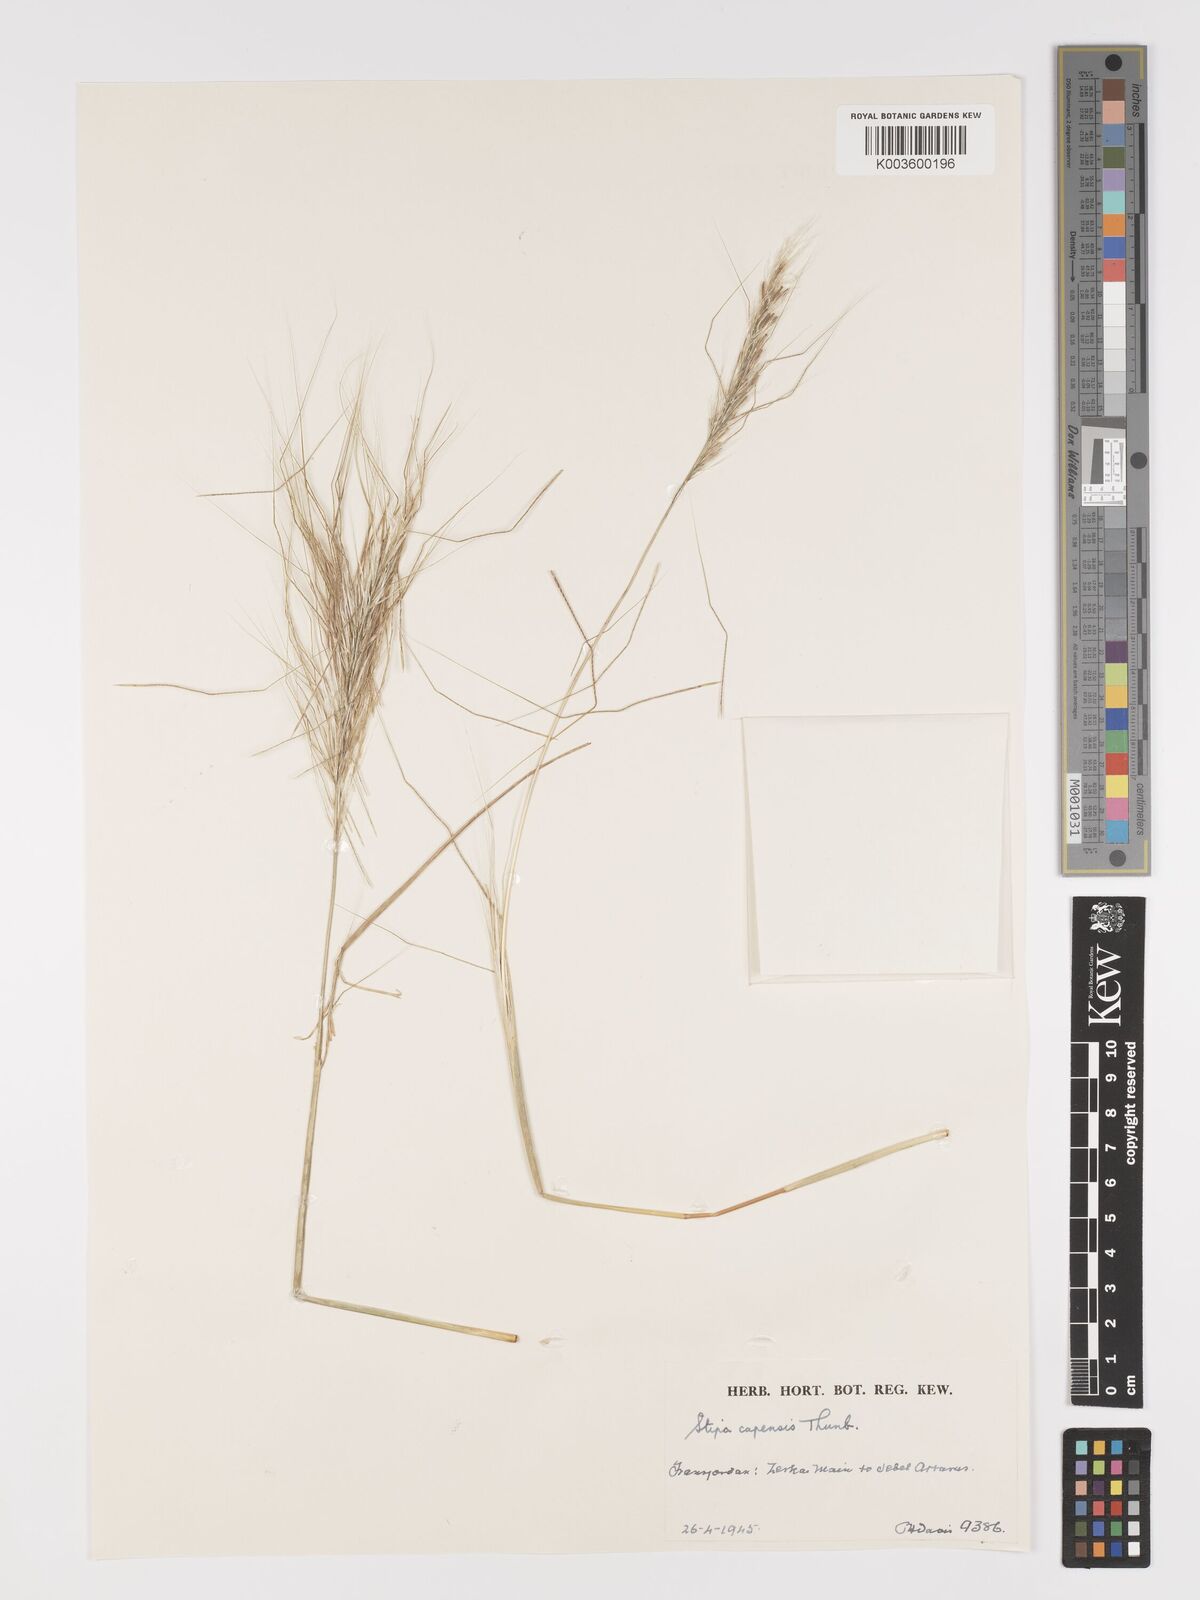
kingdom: Plantae
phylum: Tracheophyta
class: Liliopsida
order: Poales
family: Poaceae
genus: Stipellula
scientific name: Stipellula capensis
